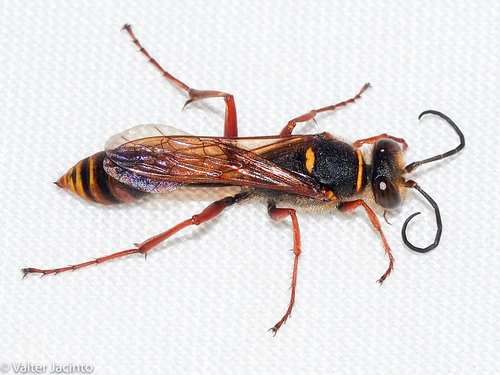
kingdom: Animalia
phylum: Arthropoda
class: Insecta
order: Hymenoptera
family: Sphecidae
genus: Sceliphron
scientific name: Sceliphron curvatum
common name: Pèlopèe
